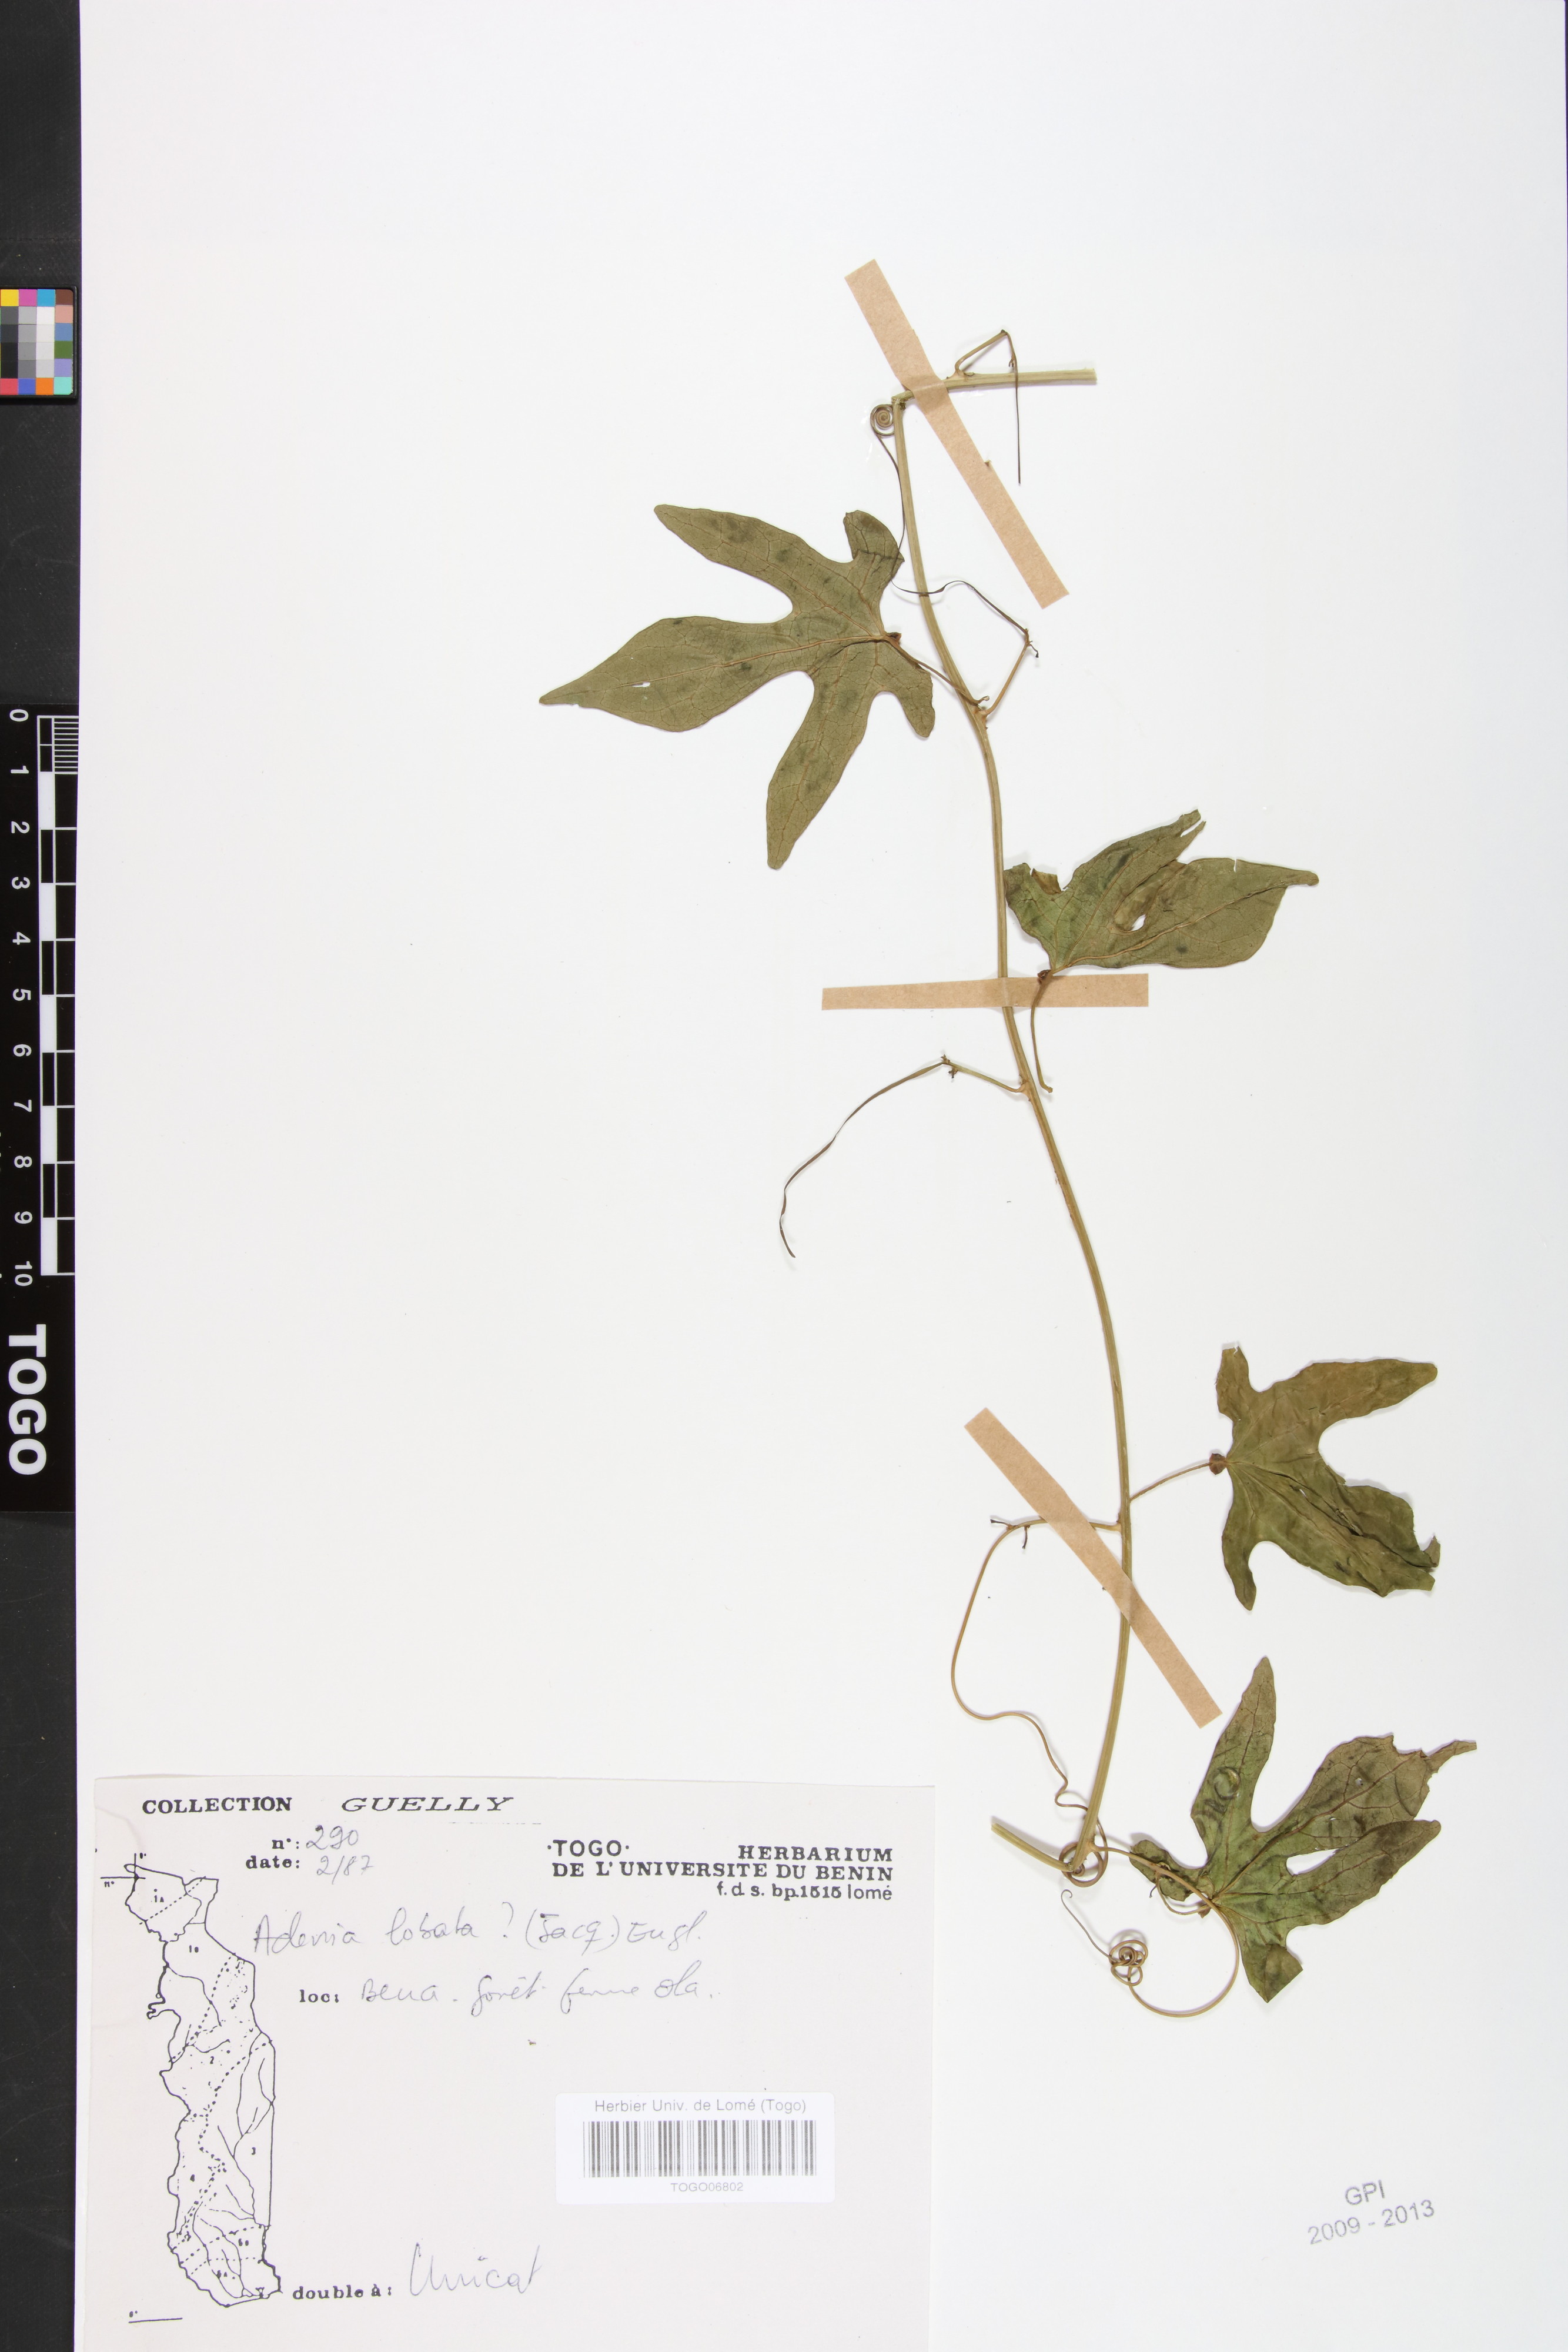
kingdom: Plantae
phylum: Tracheophyta
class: Magnoliopsida
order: Malpighiales
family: Passifloraceae
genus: Adenia
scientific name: Adenia lobata
